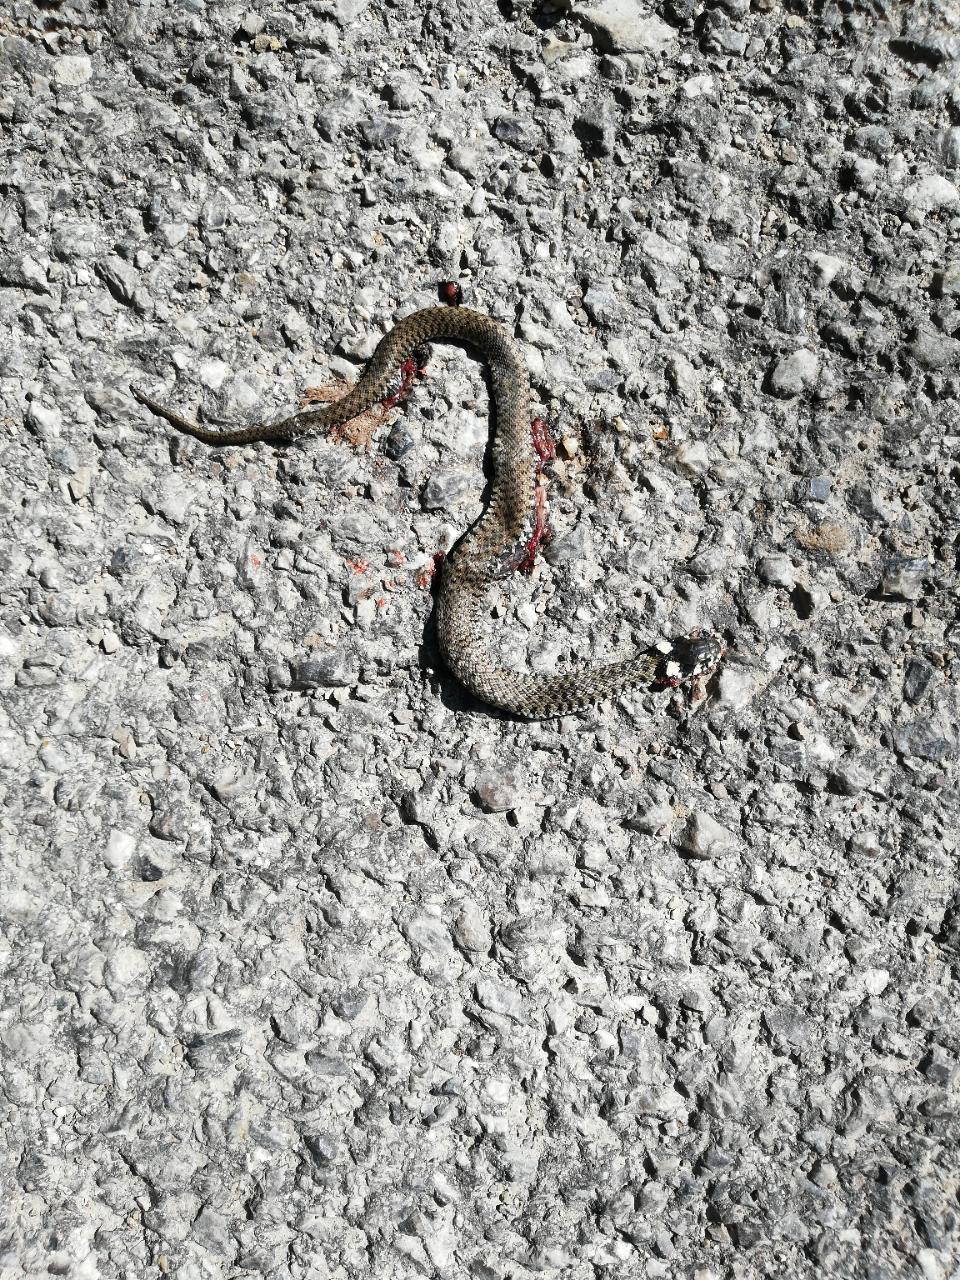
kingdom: Animalia
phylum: Chordata
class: Squamata
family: Colubridae
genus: Natrix
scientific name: Natrix natrix
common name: Grass snake
